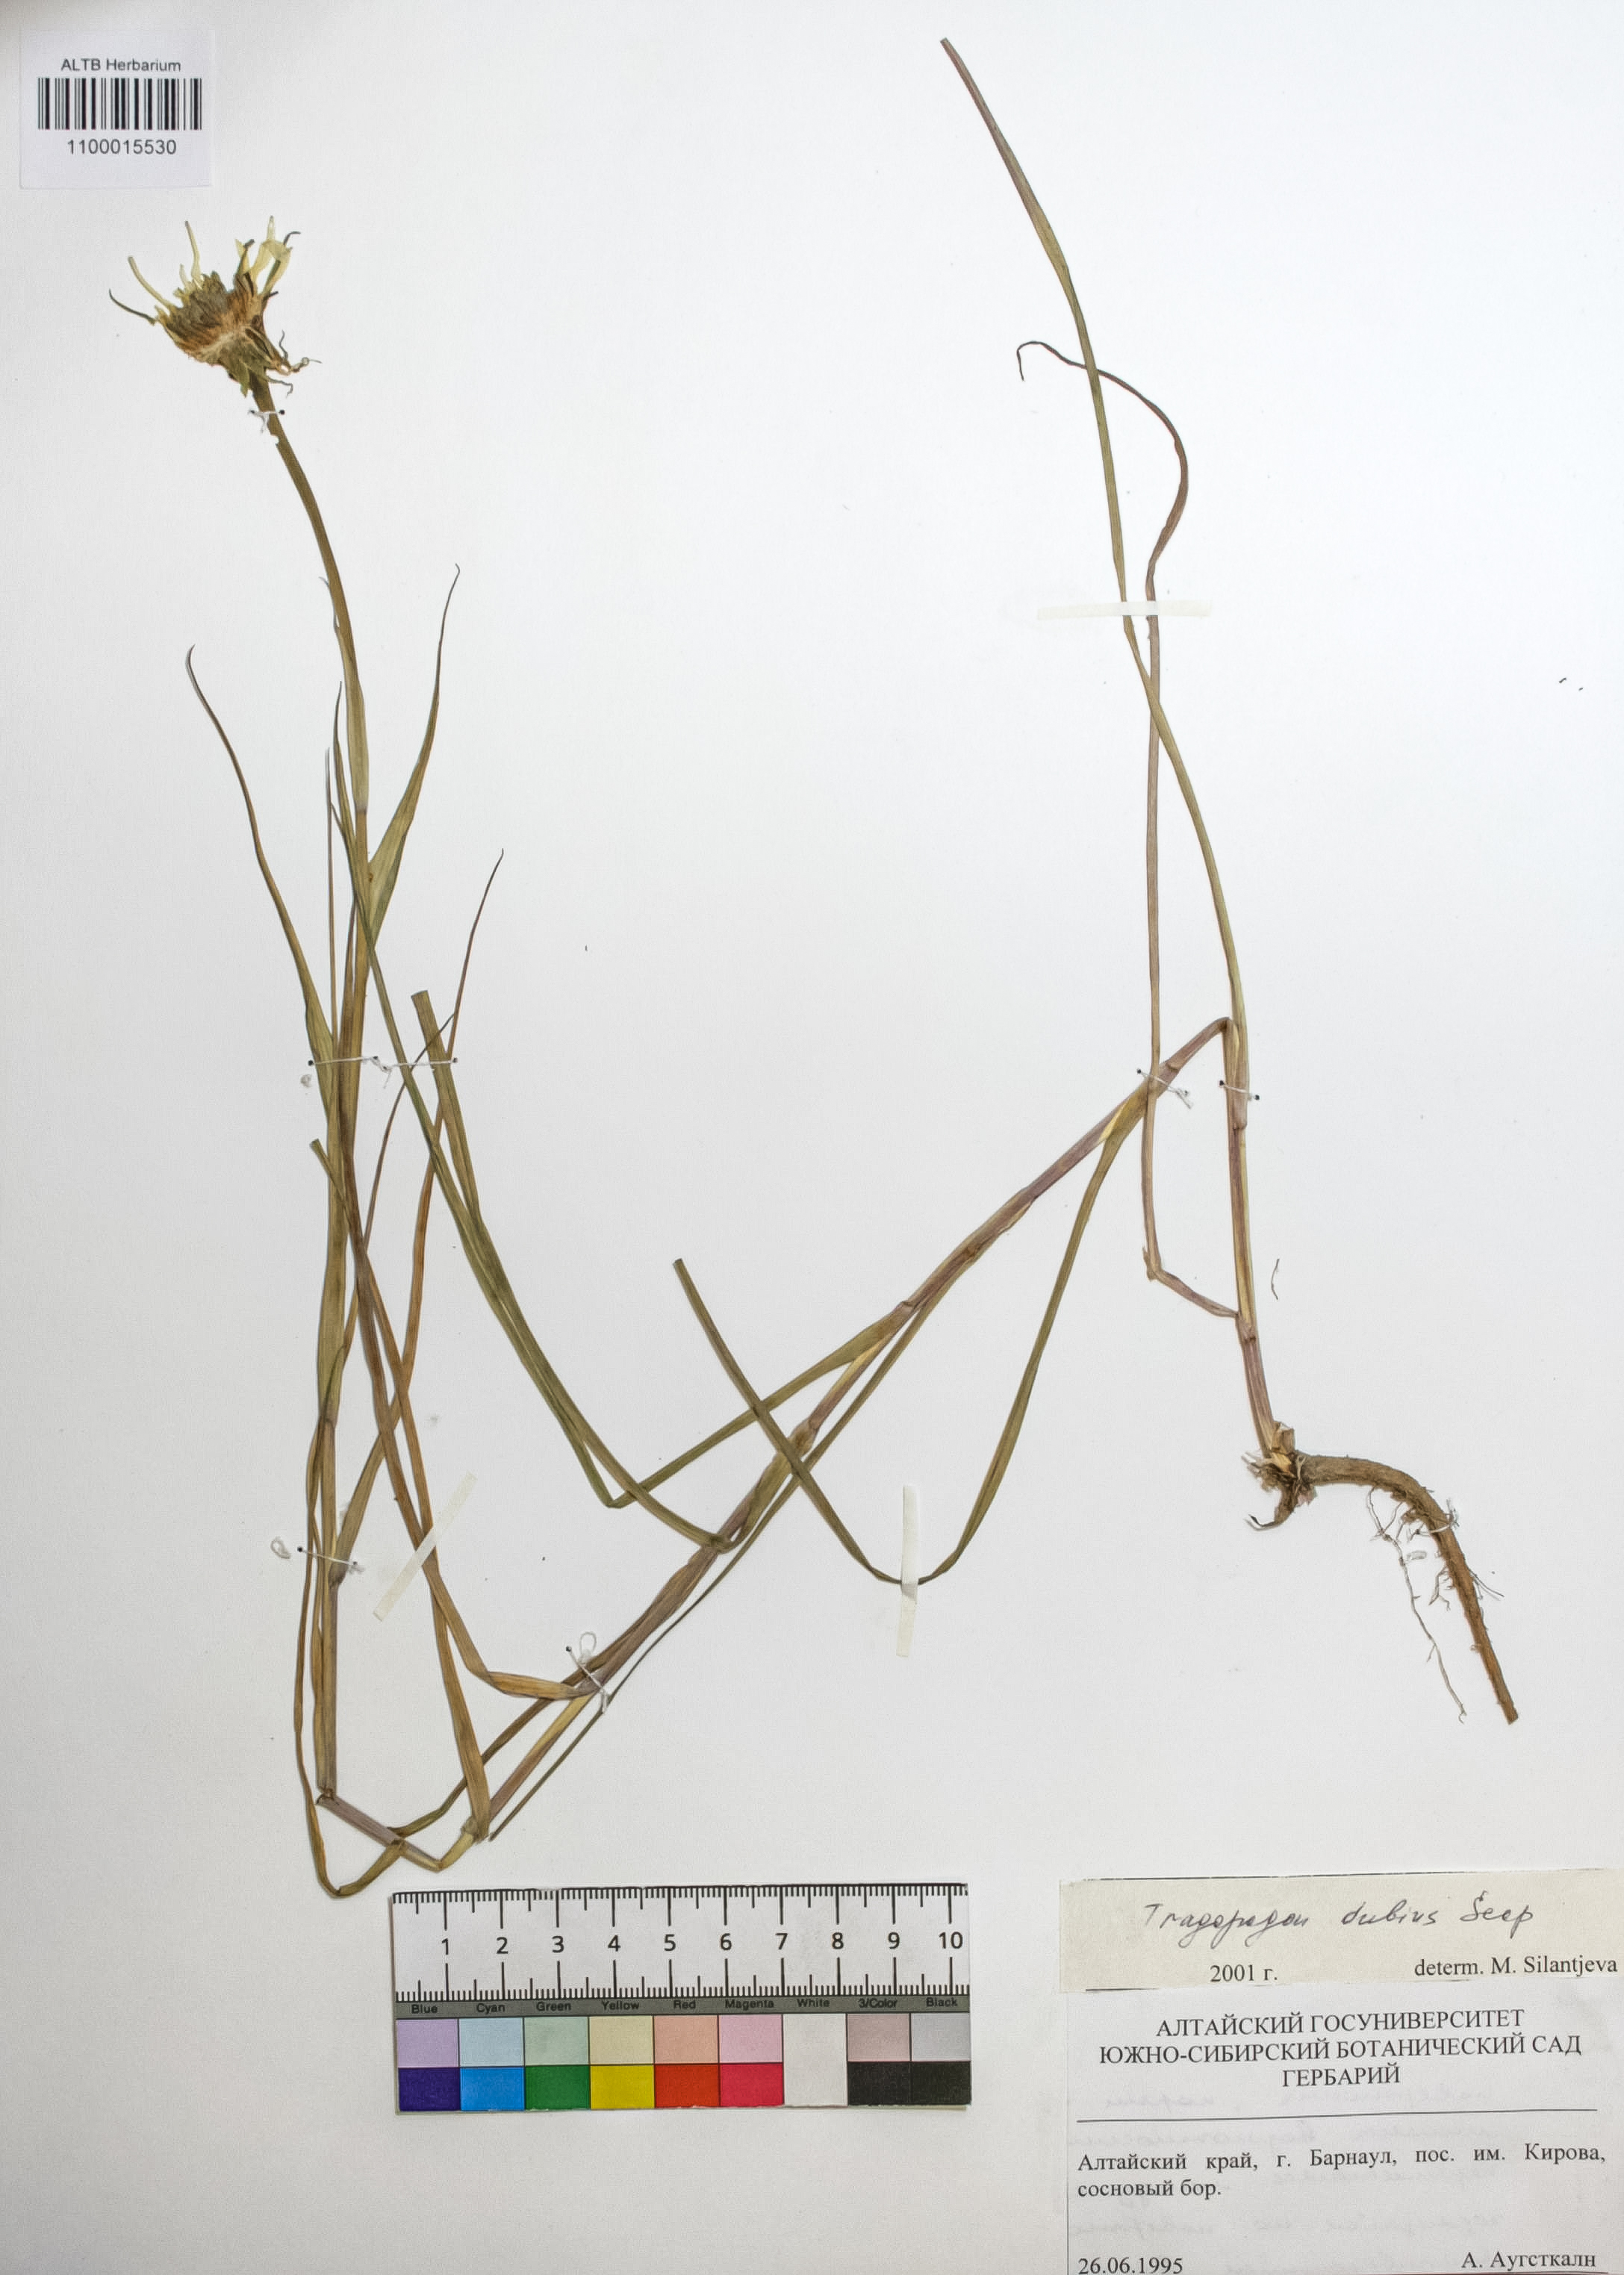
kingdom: Plantae
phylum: Tracheophyta
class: Magnoliopsida
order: Asterales
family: Asteraceae
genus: Tragopogon
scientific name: Tragopogon dubius
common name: Yellow salsify
